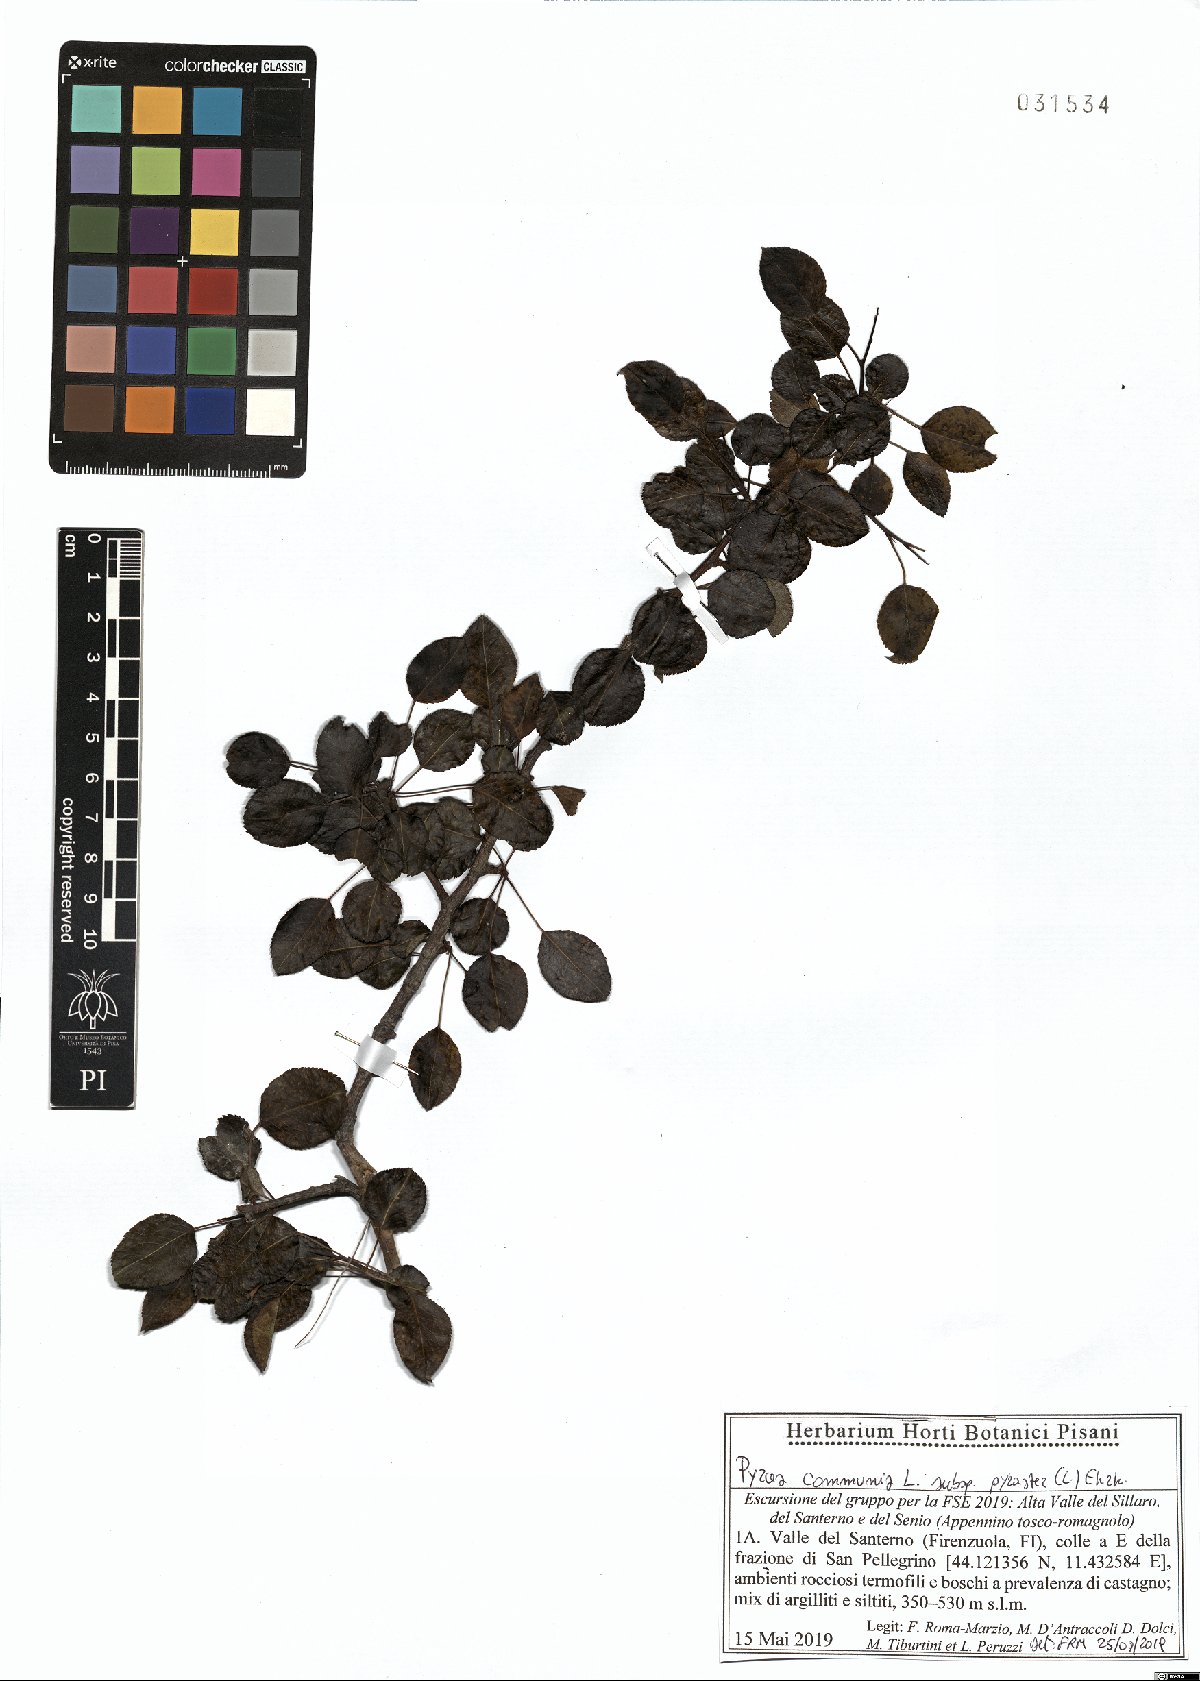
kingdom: Plantae
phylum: Tracheophyta
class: Magnoliopsida
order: Rosales
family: Rosaceae
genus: Pyrus
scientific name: Pyrus pyraster
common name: Wild pear
